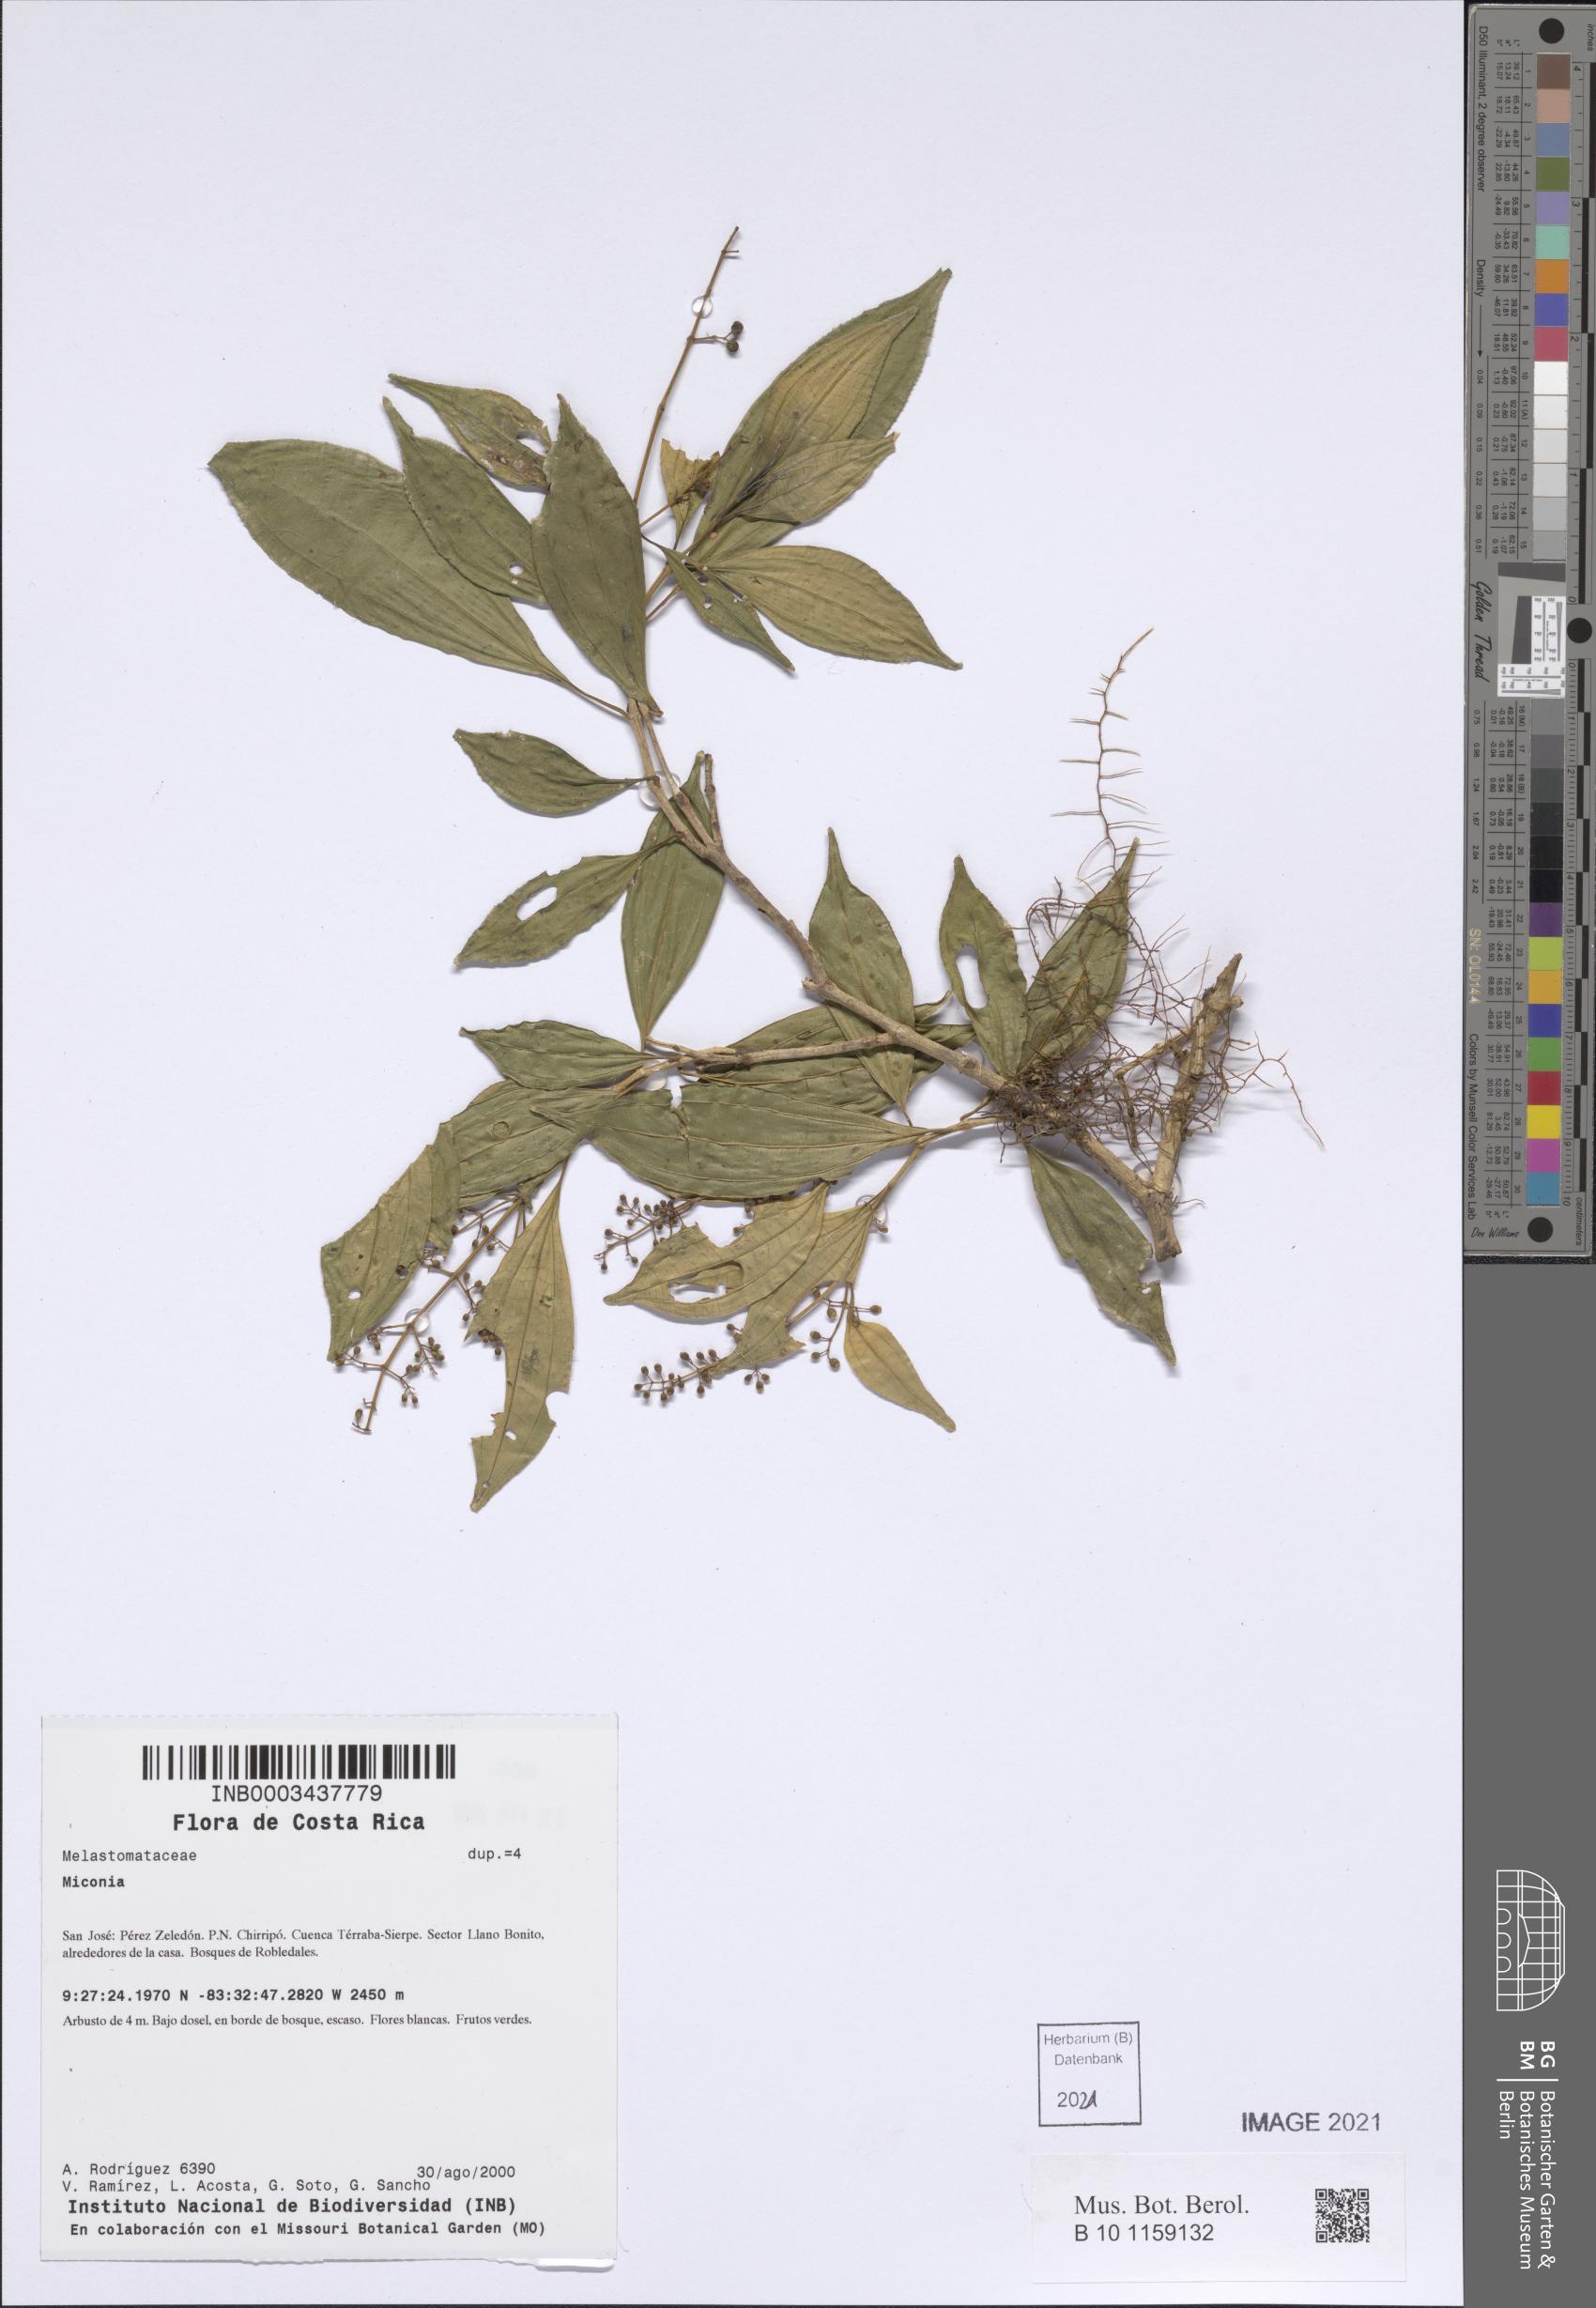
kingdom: Plantae
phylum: Tracheophyta
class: Magnoliopsida
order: Myrtales
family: Melastomataceae
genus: Miconia
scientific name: Miconia
